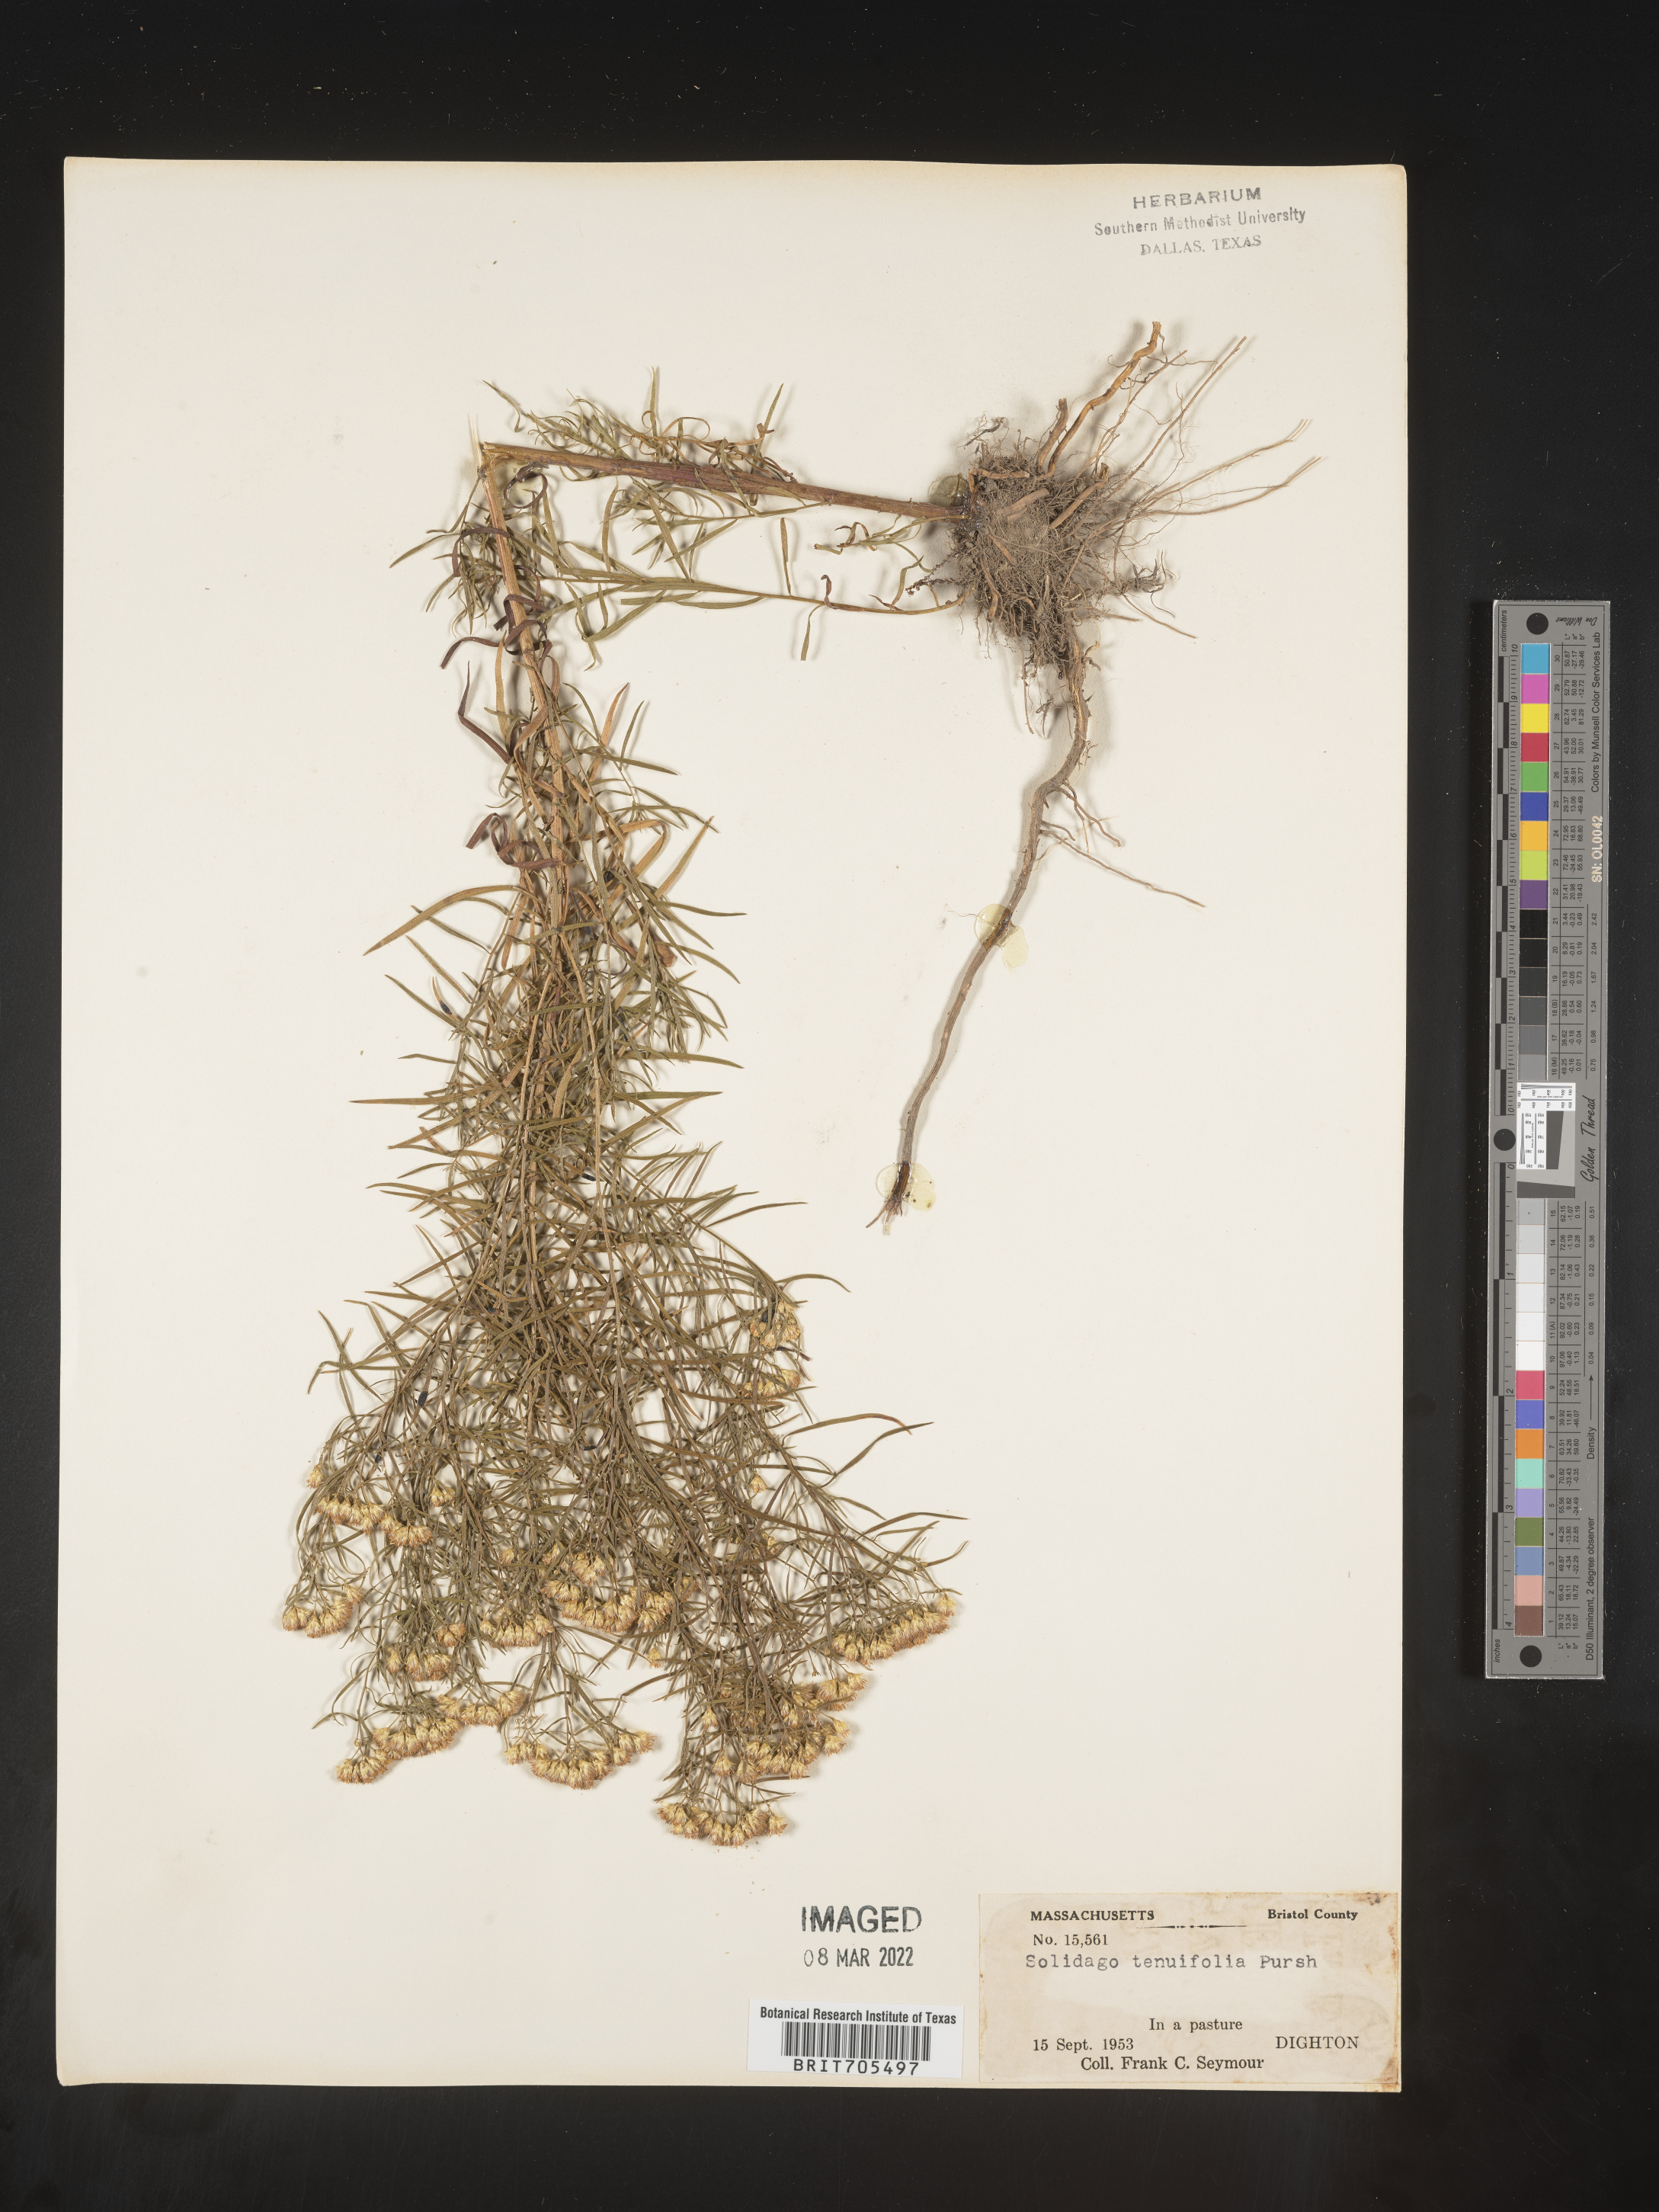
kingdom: Plantae
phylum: Tracheophyta
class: Magnoliopsida
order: Asterales
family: Asteraceae
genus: Euthamia
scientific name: Euthamia caroliniana
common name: Coastal plain goldentop
